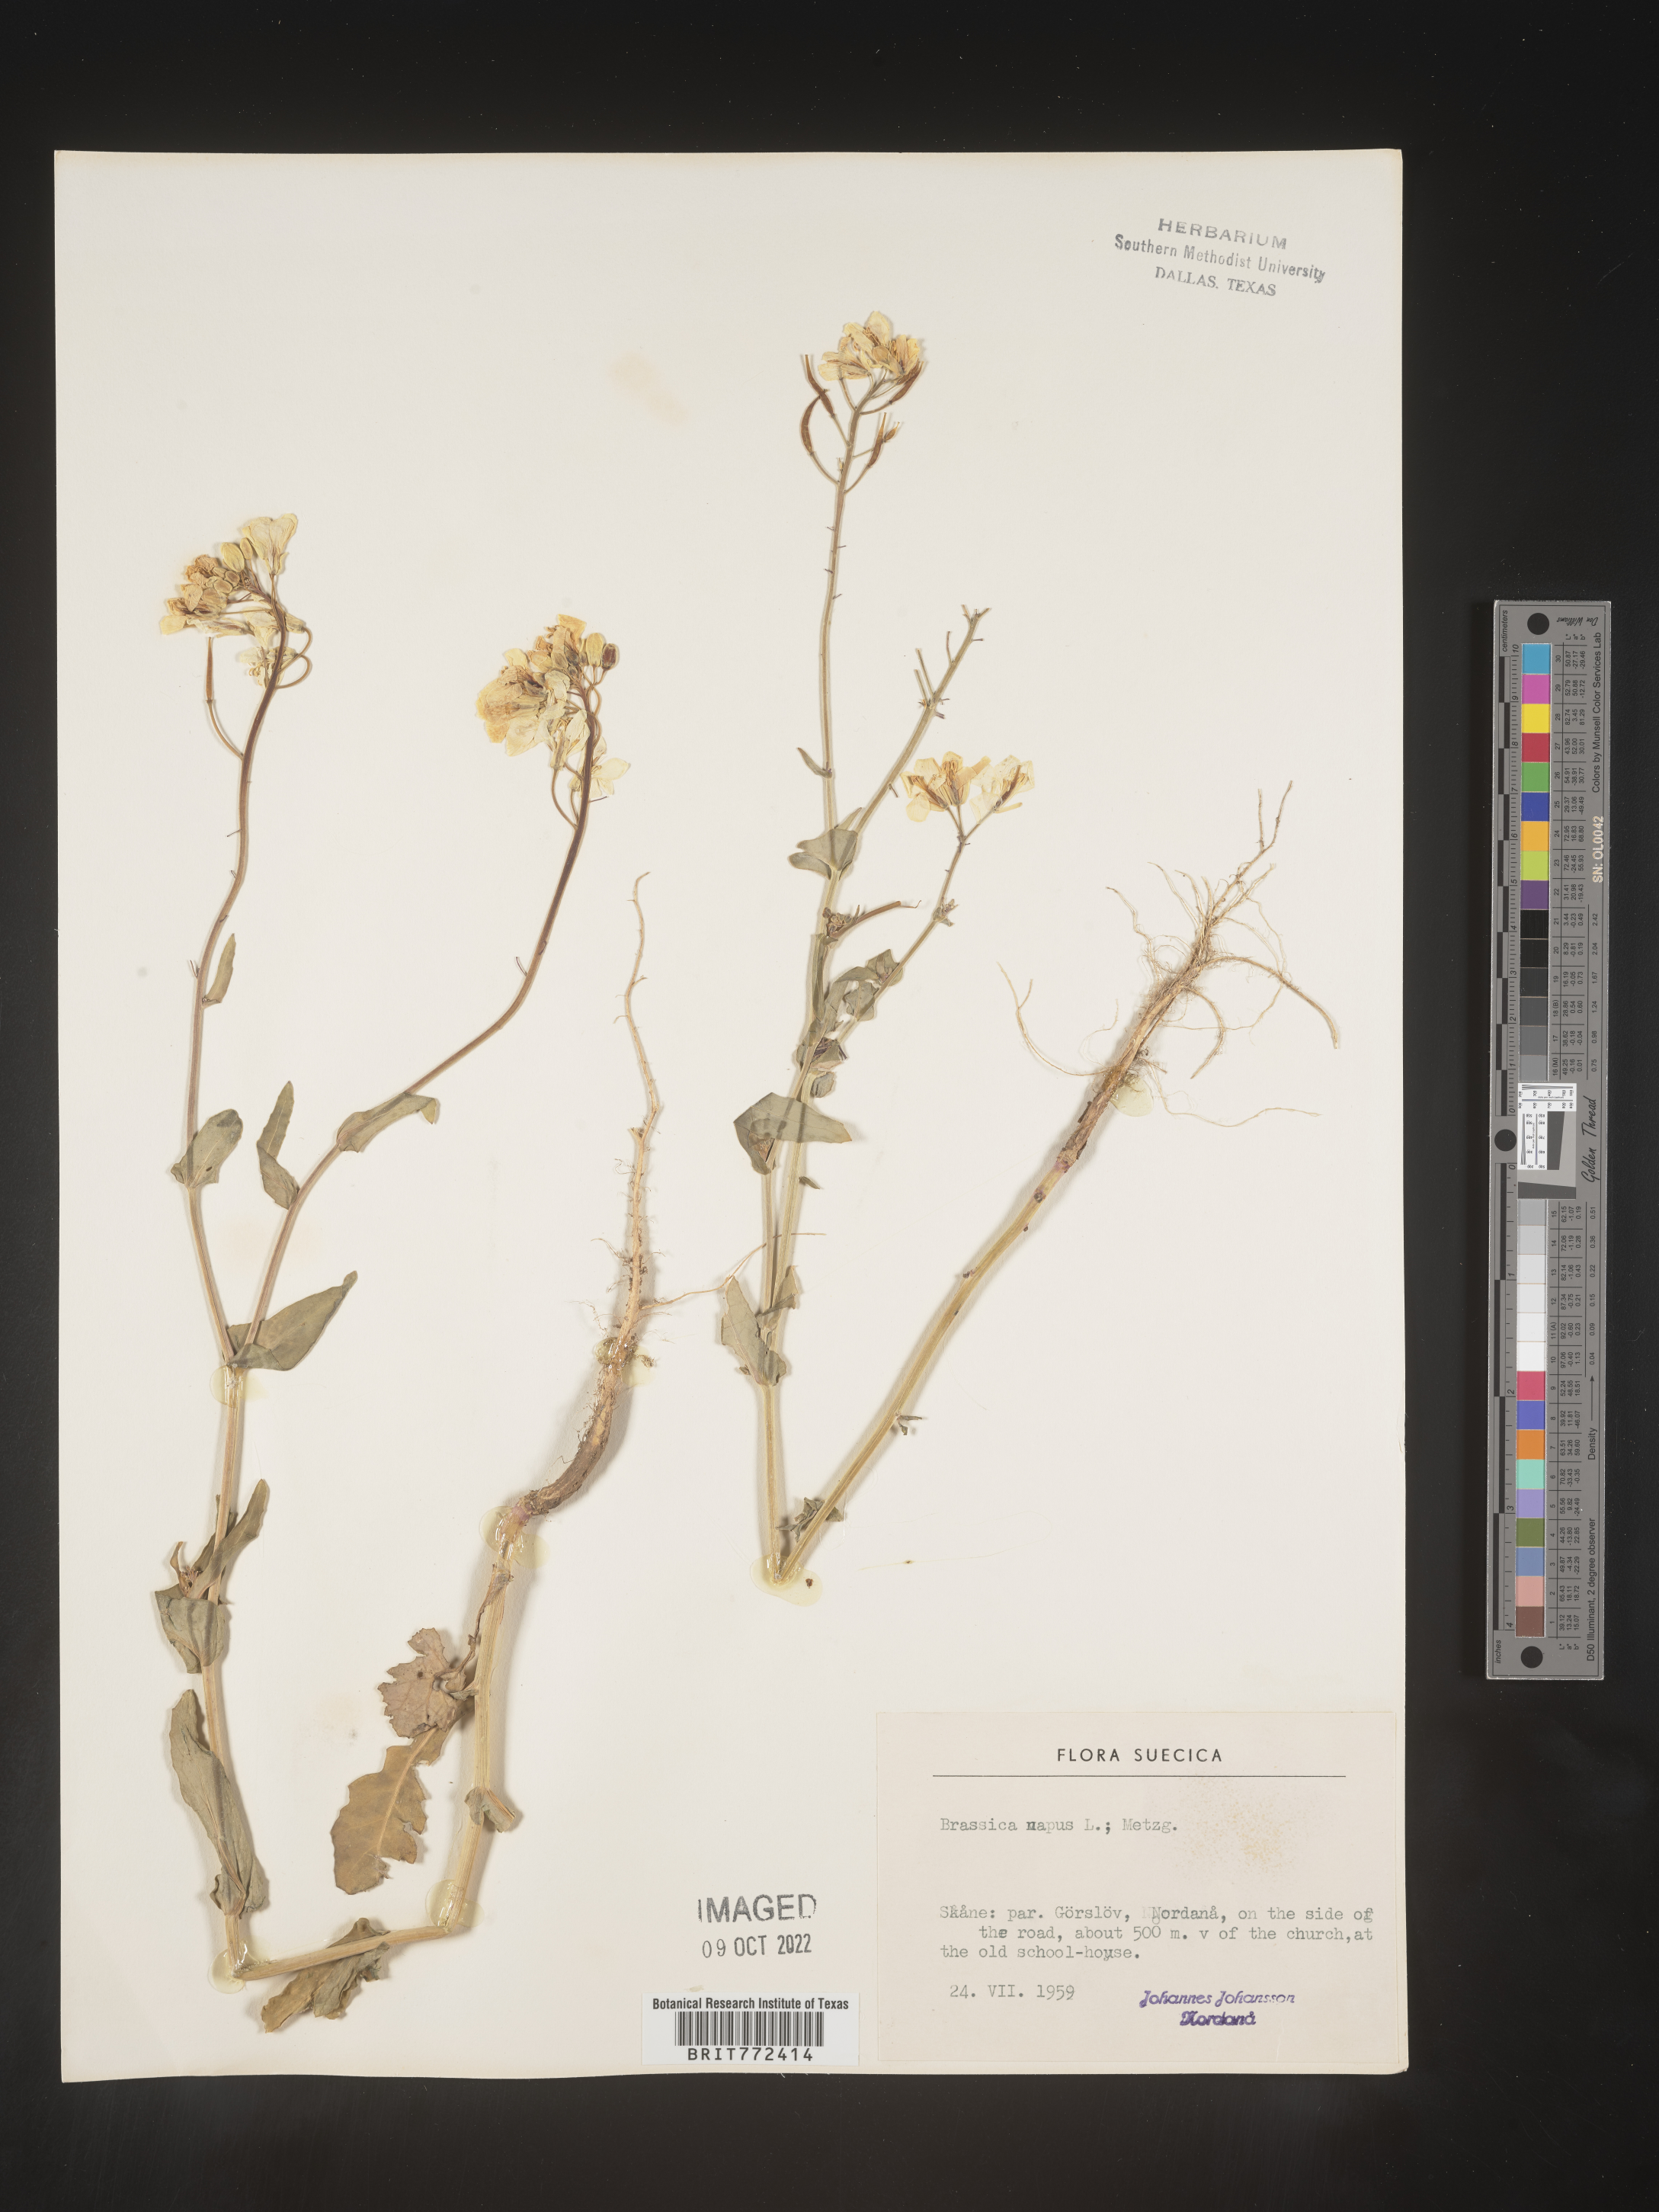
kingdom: Plantae
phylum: Tracheophyta
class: Magnoliopsida
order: Brassicales
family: Brassicaceae
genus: Brassica
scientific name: Brassica
